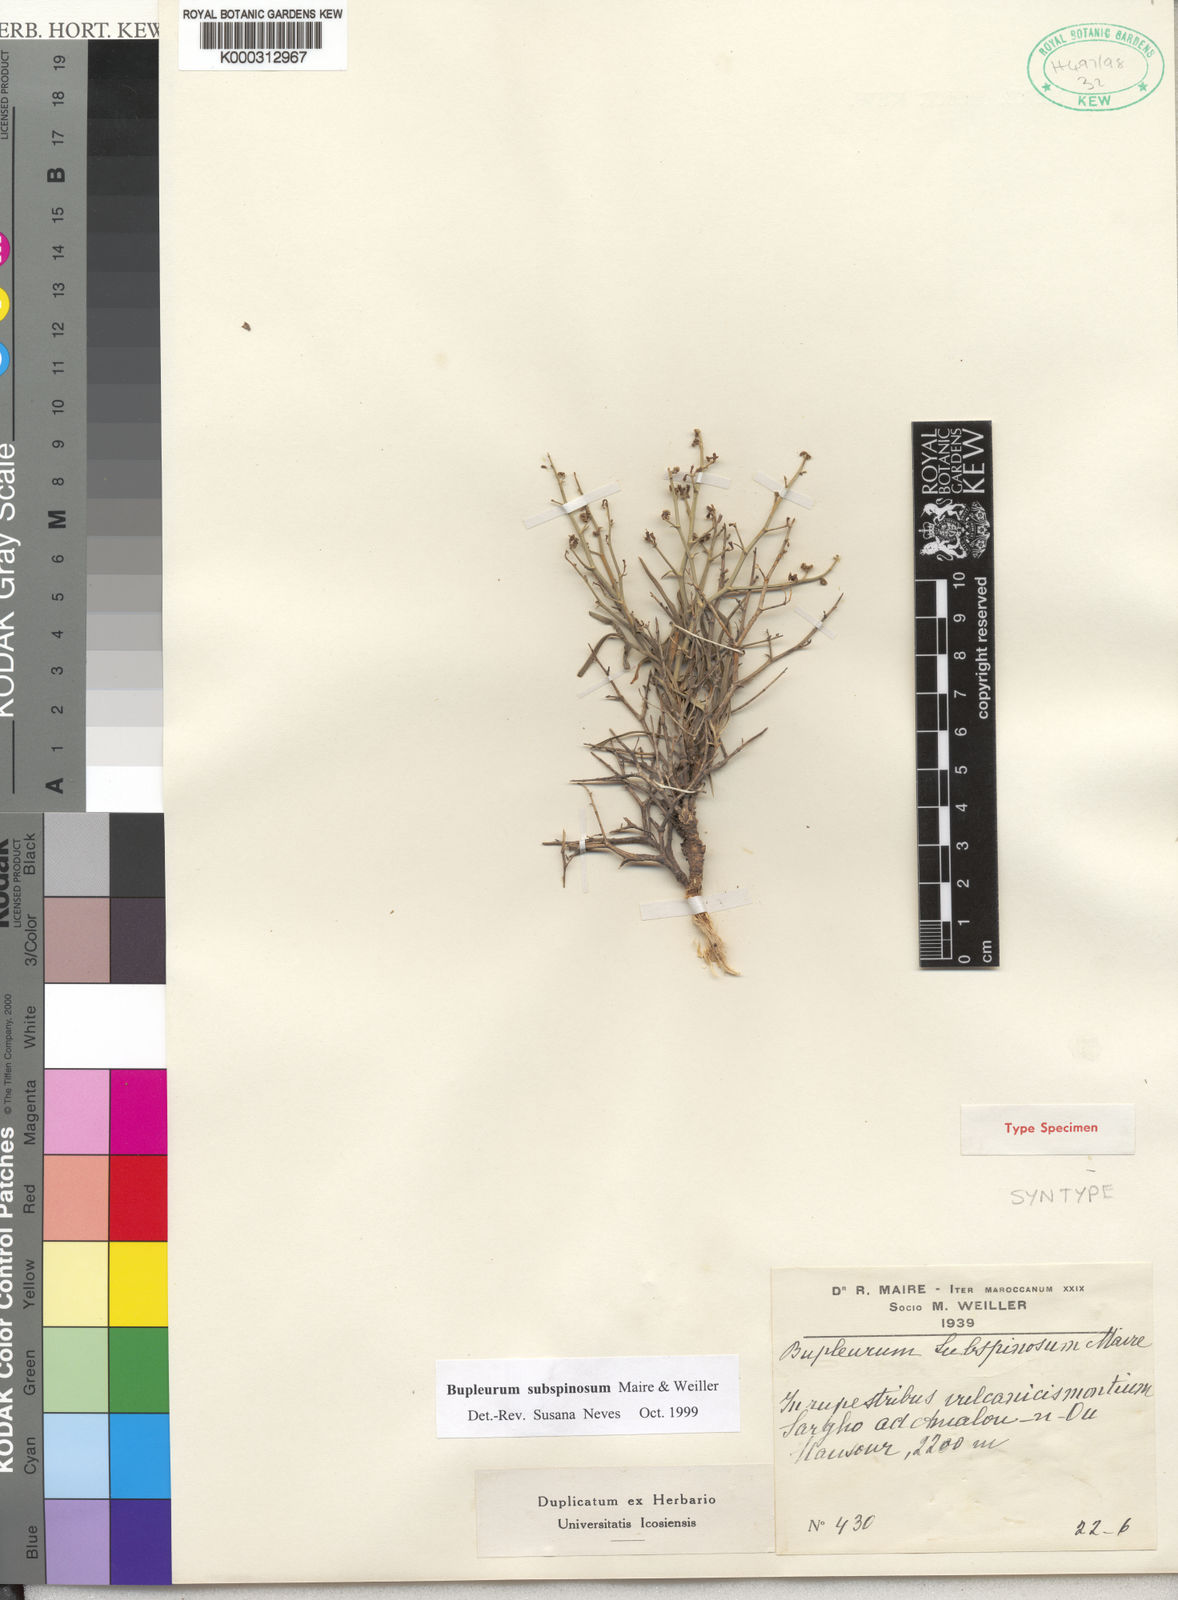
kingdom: Plantae
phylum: Tracheophyta
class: Magnoliopsida
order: Apiales
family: Apiaceae
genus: Bupleurum
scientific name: Bupleurum
